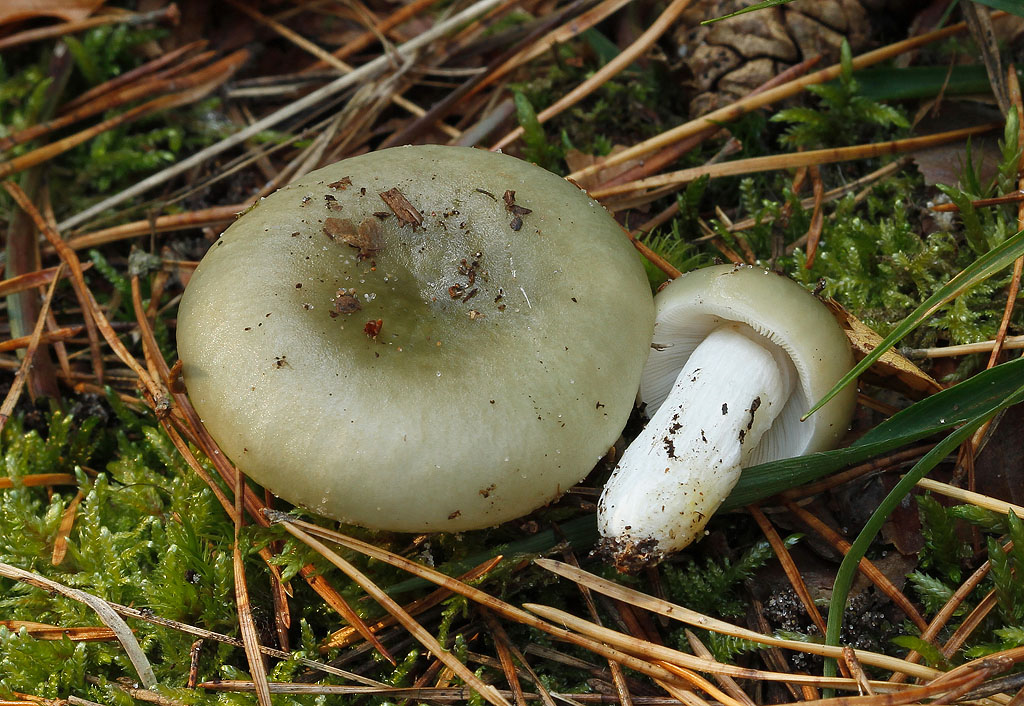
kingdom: Fungi
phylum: Basidiomycota
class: Agaricomycetes
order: Russulales
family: Russulaceae
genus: Russula
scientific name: Russula aeruginea
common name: græsgrøn skørhat
